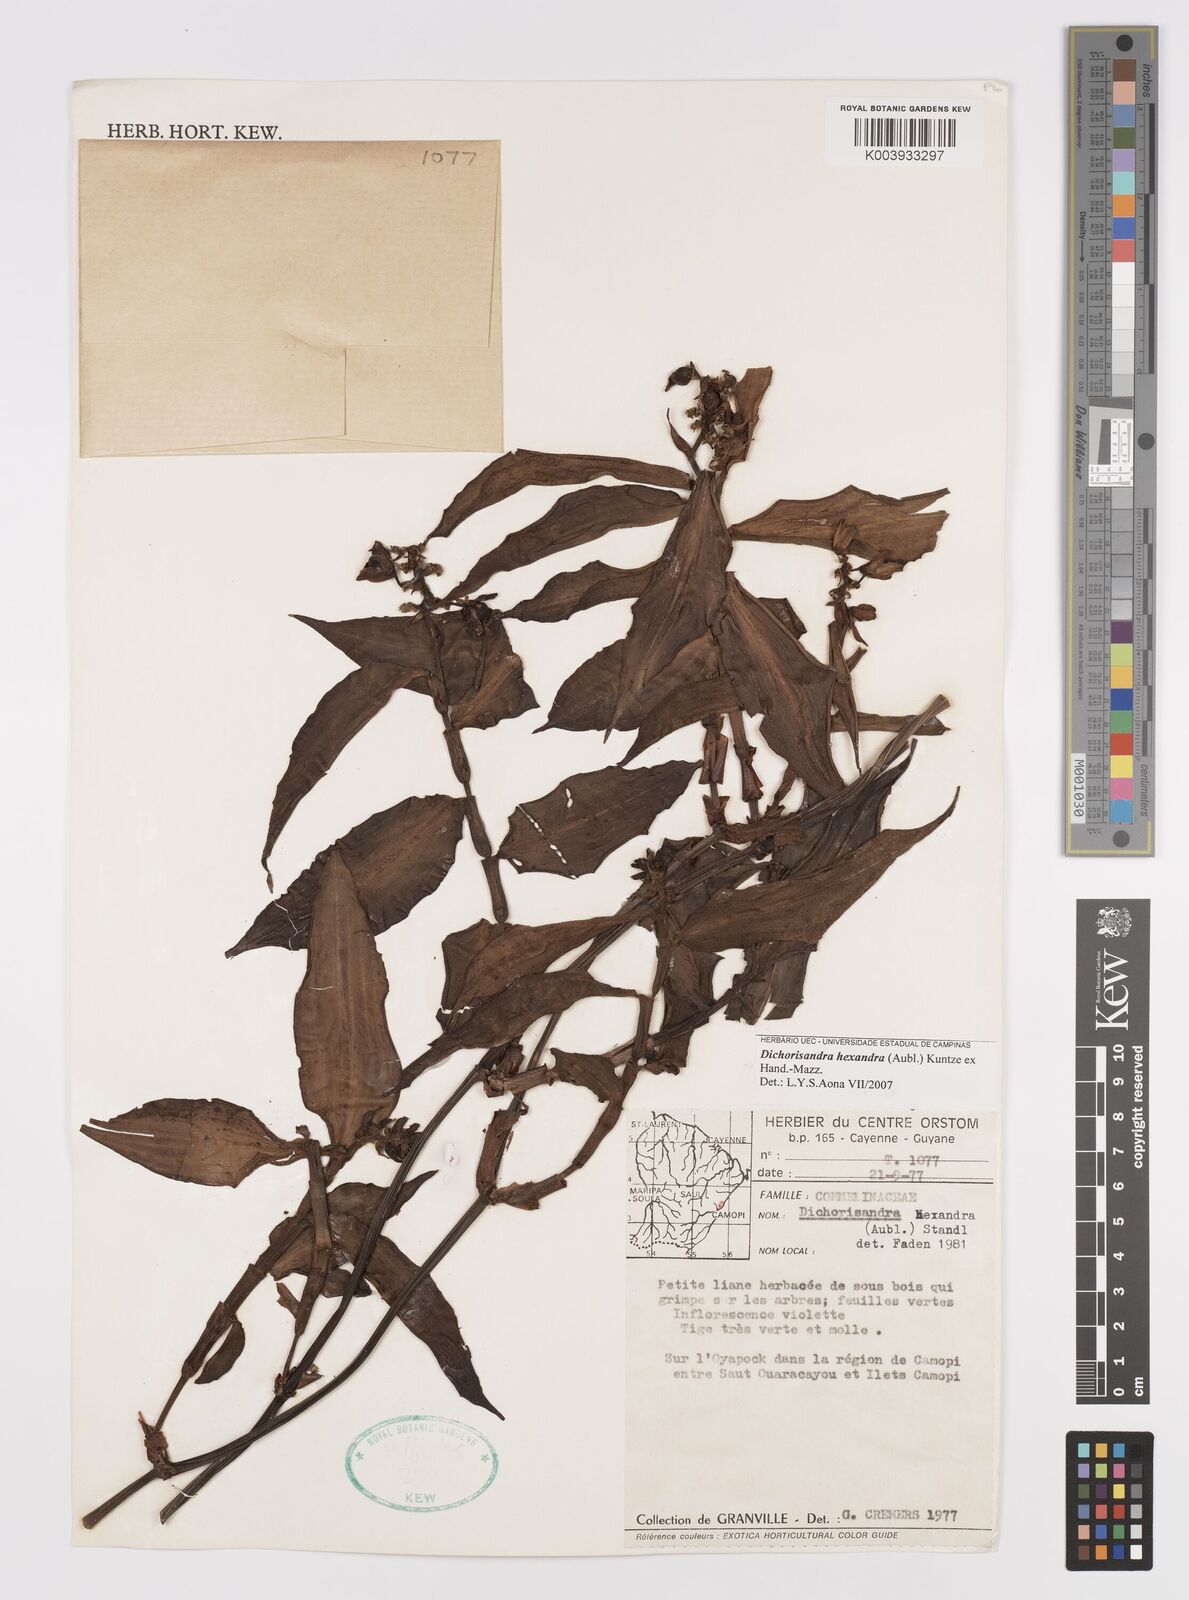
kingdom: Plantae
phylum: Tracheophyta
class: Liliopsida
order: Commelinales
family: Commelinaceae
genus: Dichorisandra
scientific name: Dichorisandra hexandra
